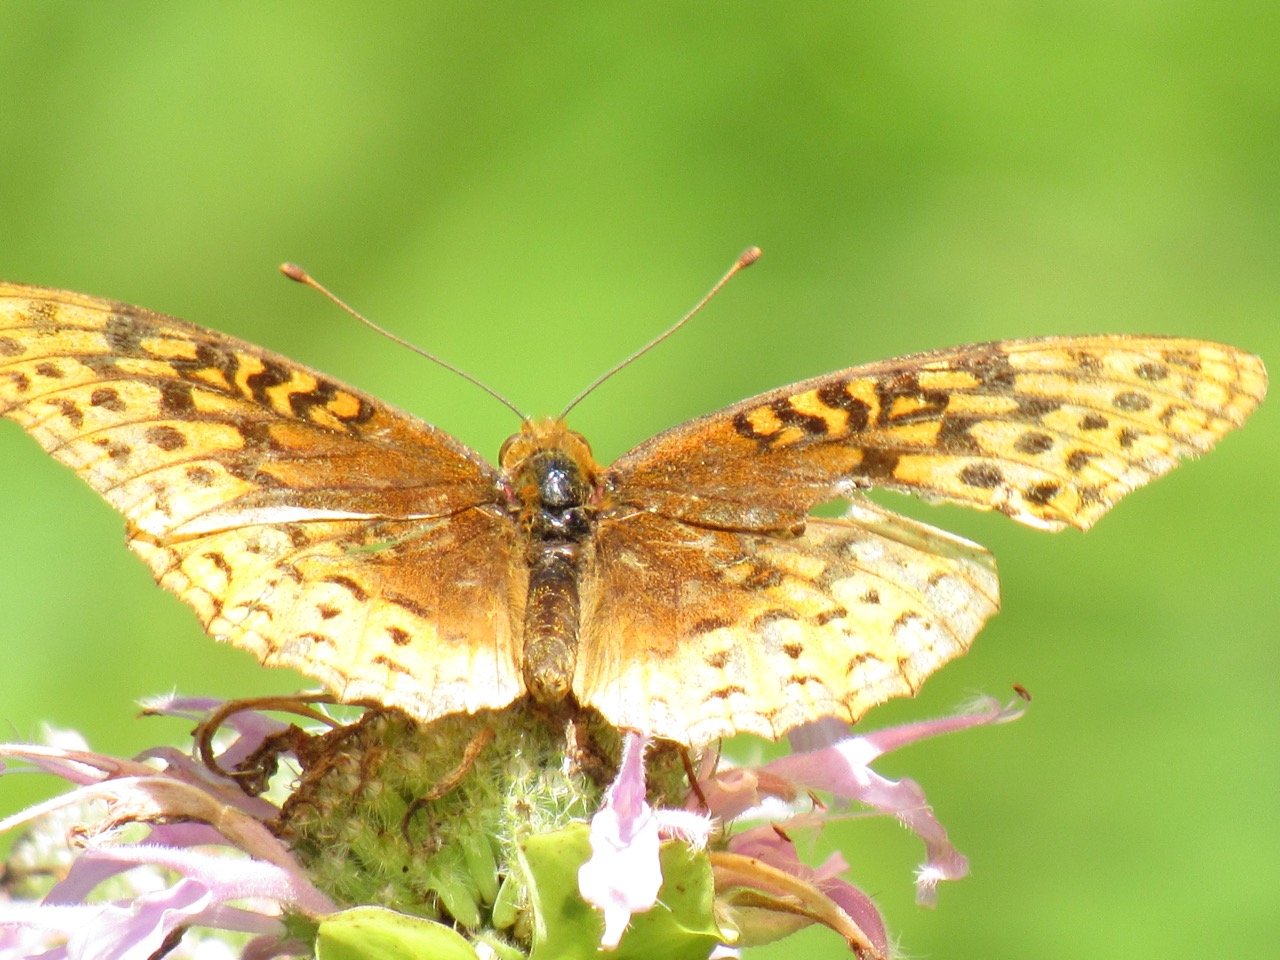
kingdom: Animalia
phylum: Arthropoda
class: Insecta
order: Lepidoptera
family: Nymphalidae
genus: Speyeria
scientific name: Speyeria cybele
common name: Great Spangled Fritillary
